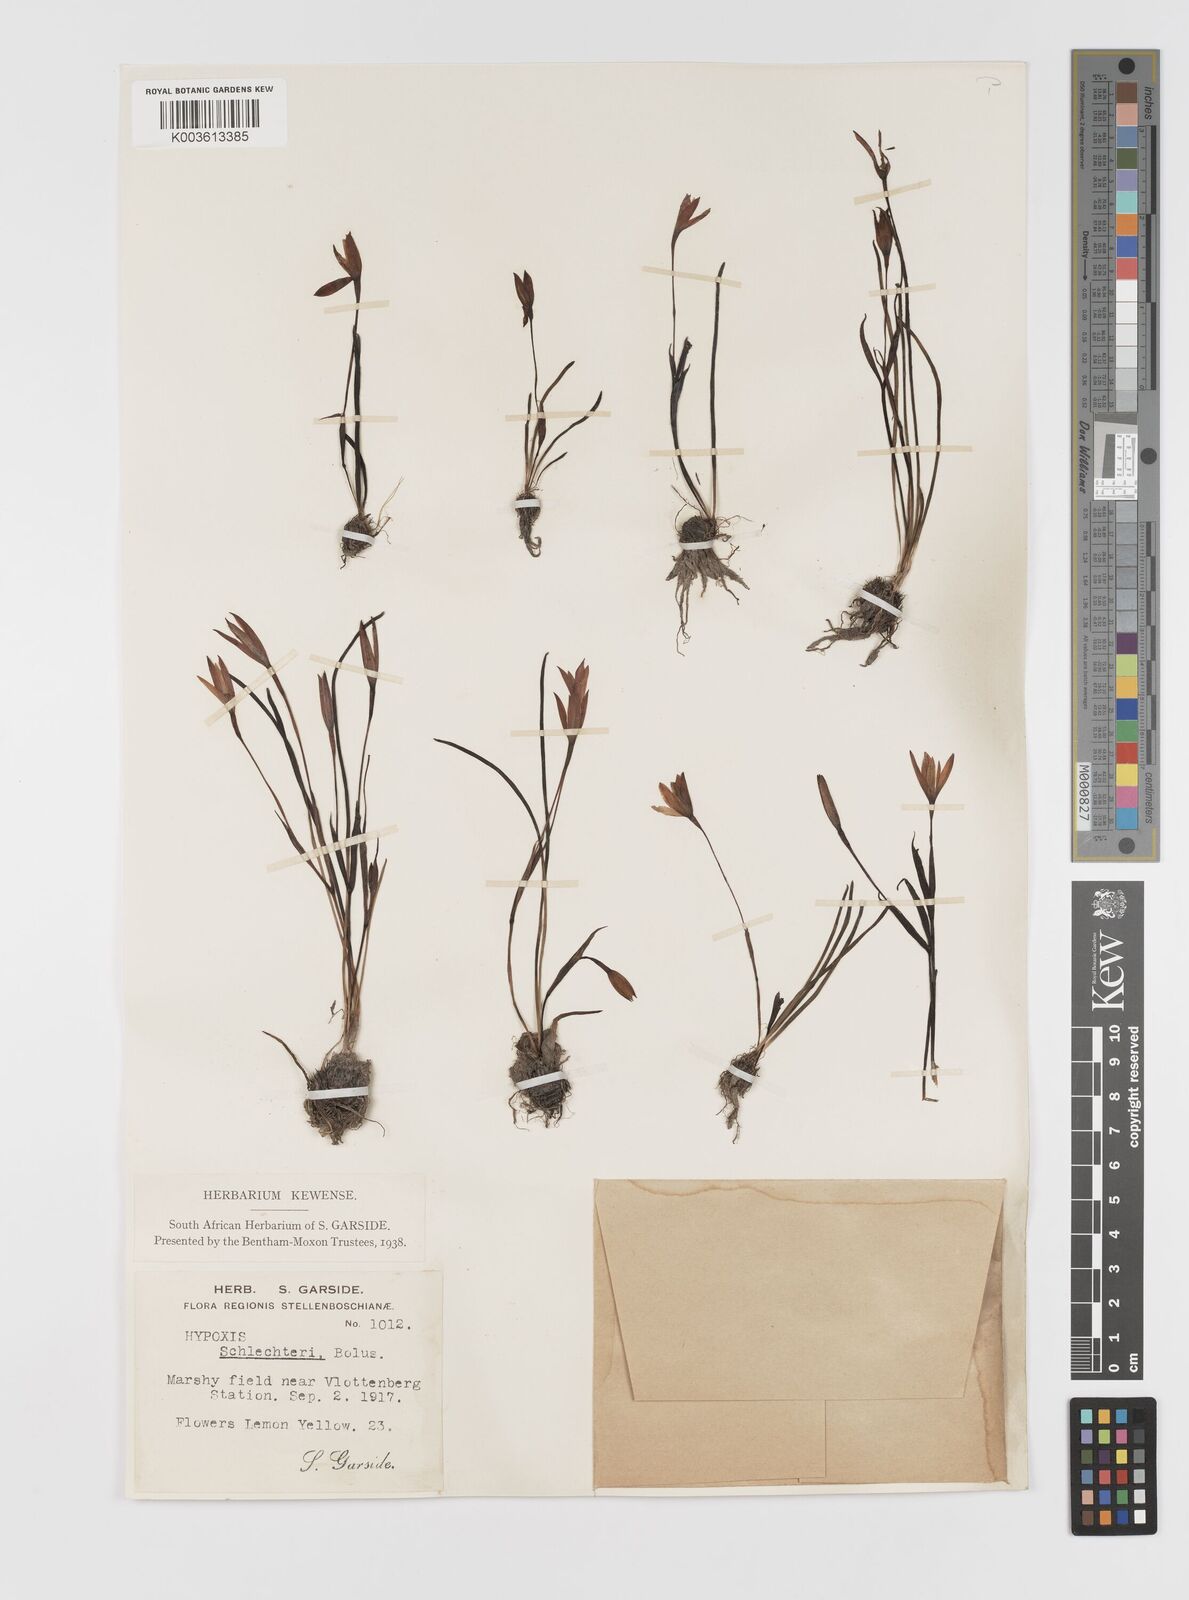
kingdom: Plantae
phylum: Tracheophyta
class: Liliopsida
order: Asparagales
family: Hypoxidaceae
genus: Pauridia
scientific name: Pauridia affinis
